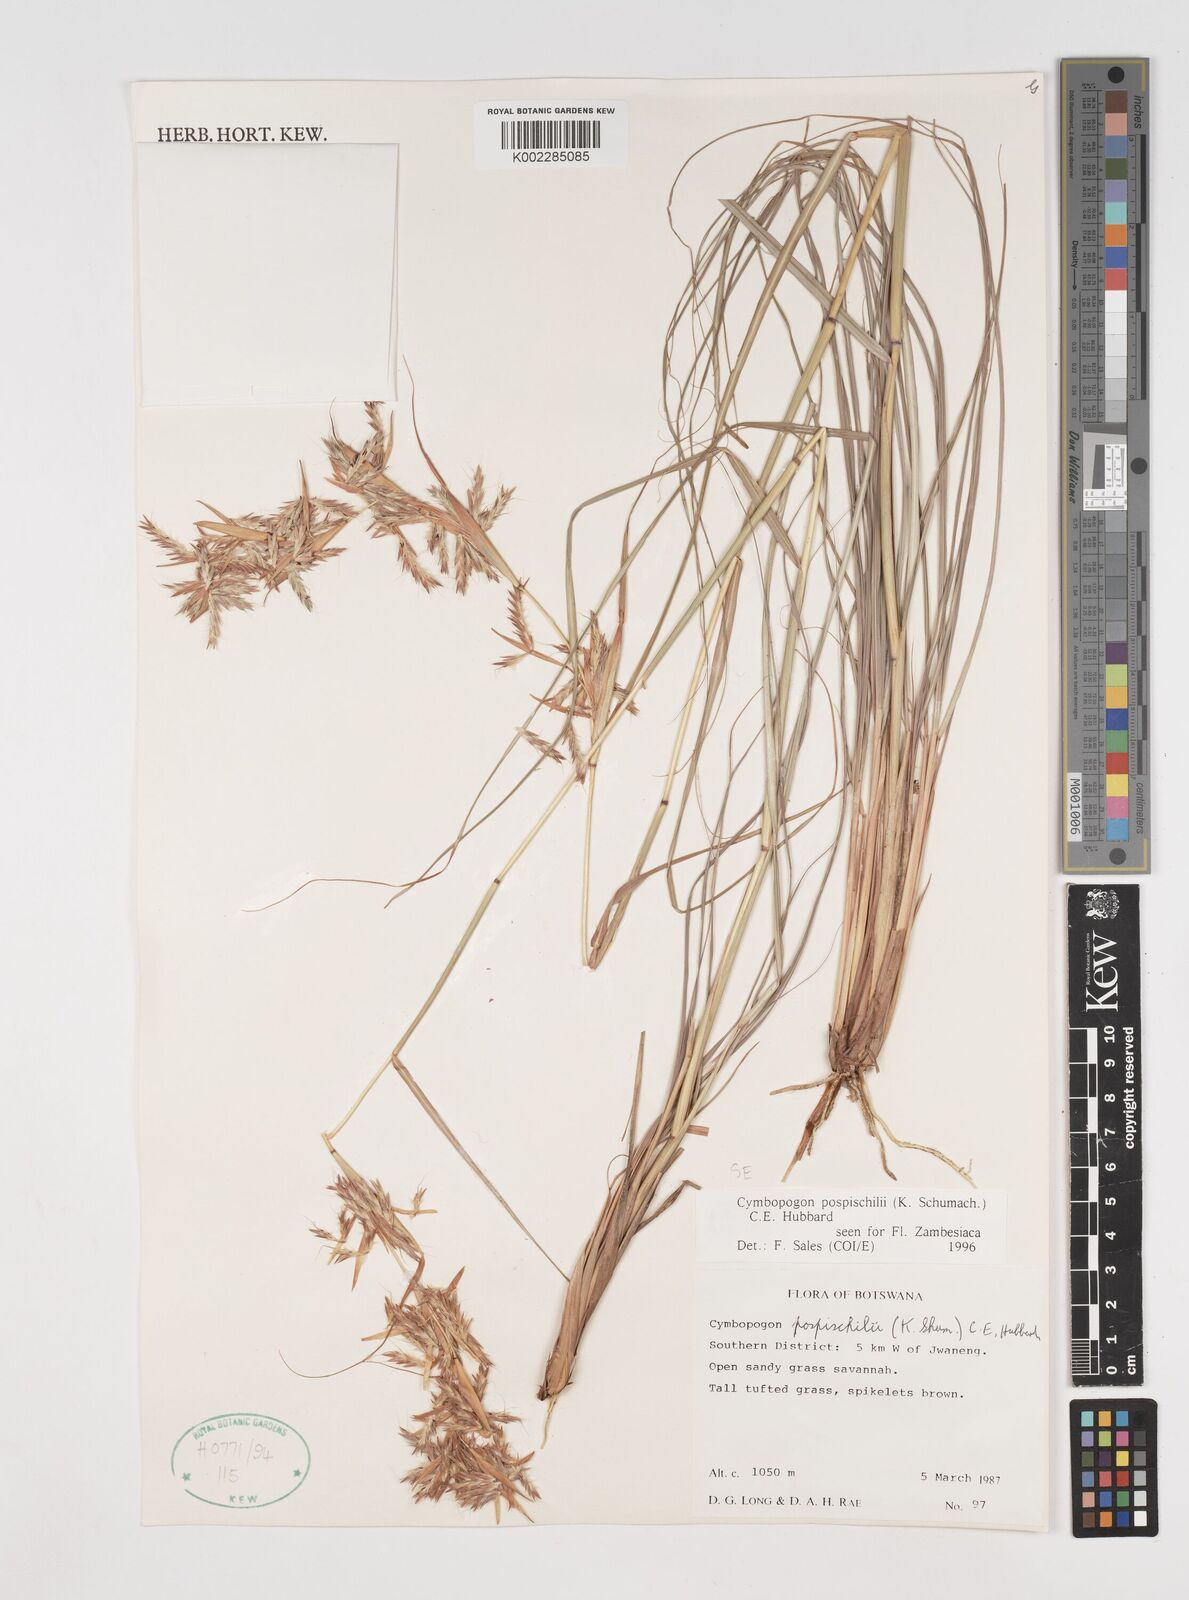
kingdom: Plantae
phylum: Tracheophyta
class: Liliopsida
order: Poales
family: Poaceae
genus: Cymbopogon
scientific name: Cymbopogon pospischilii
